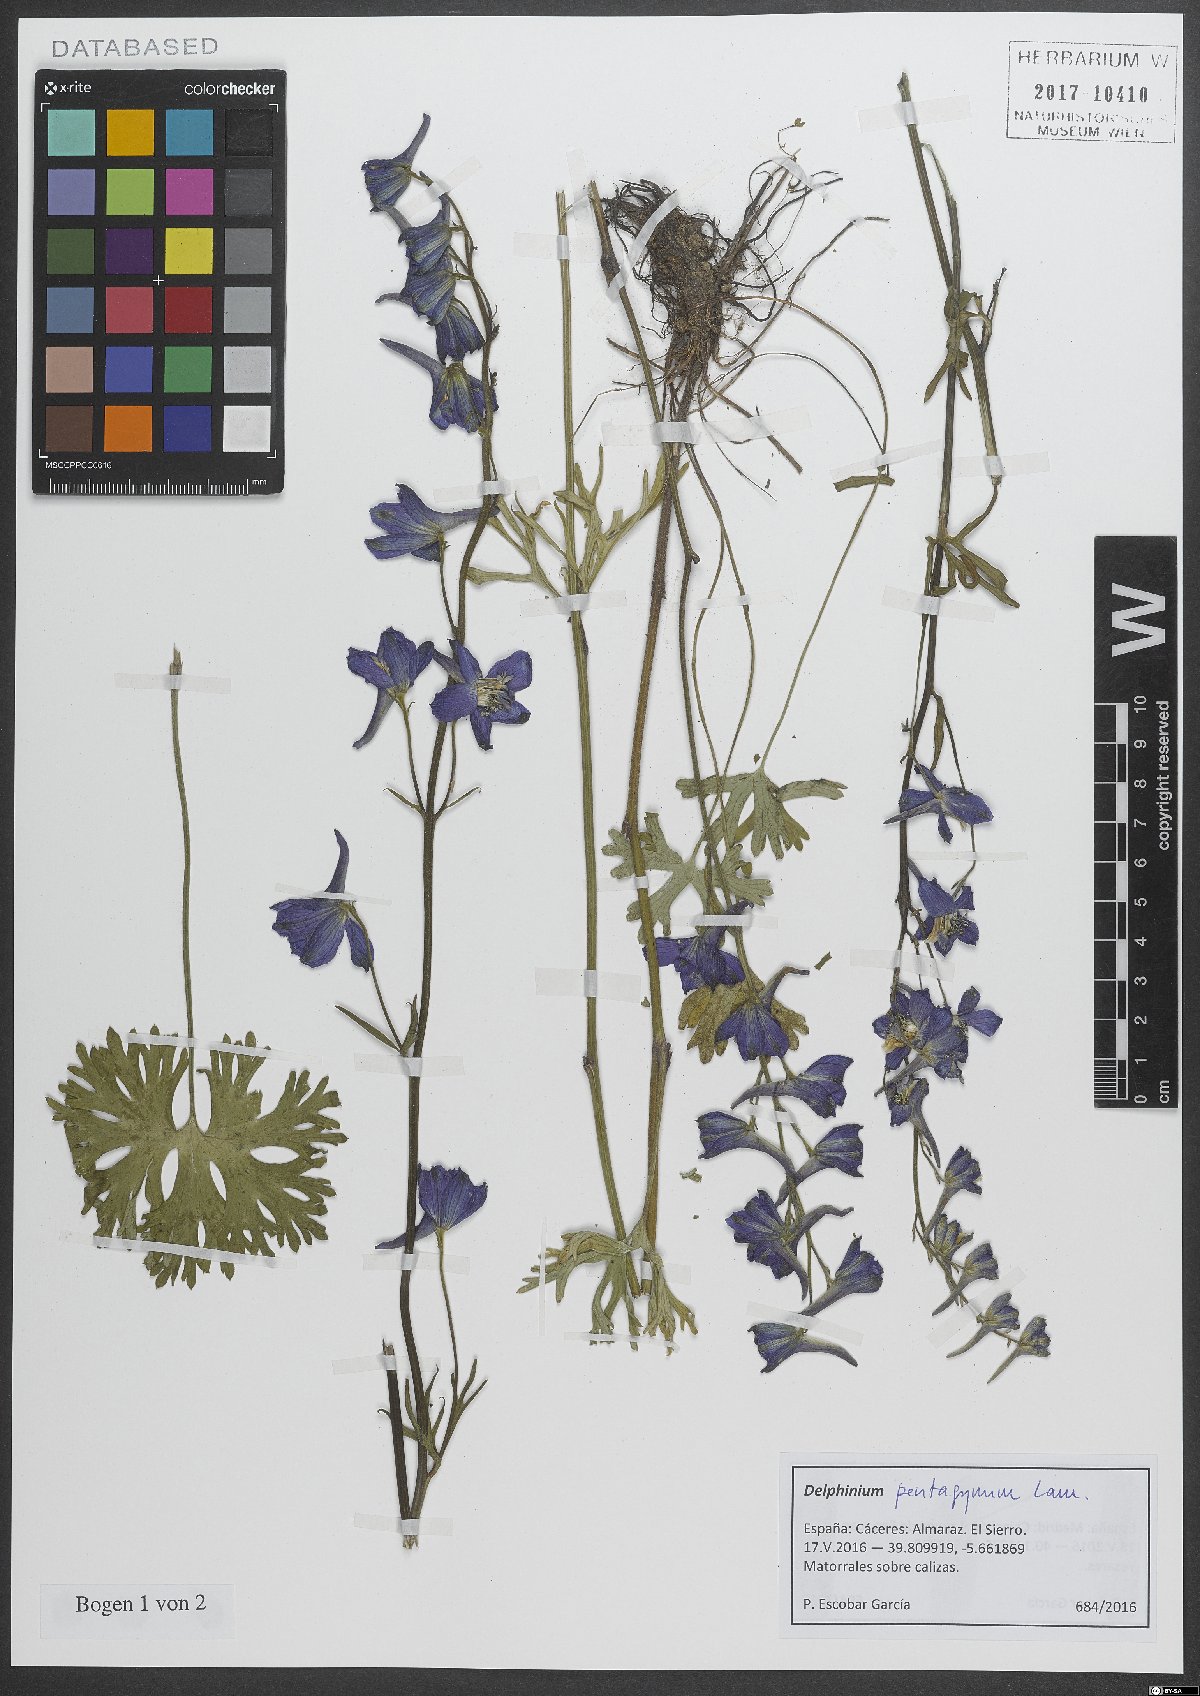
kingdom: Plantae
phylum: Tracheophyta
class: Magnoliopsida
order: Ranunculales
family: Ranunculaceae
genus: Delphinium
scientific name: Delphinium pentagynum
